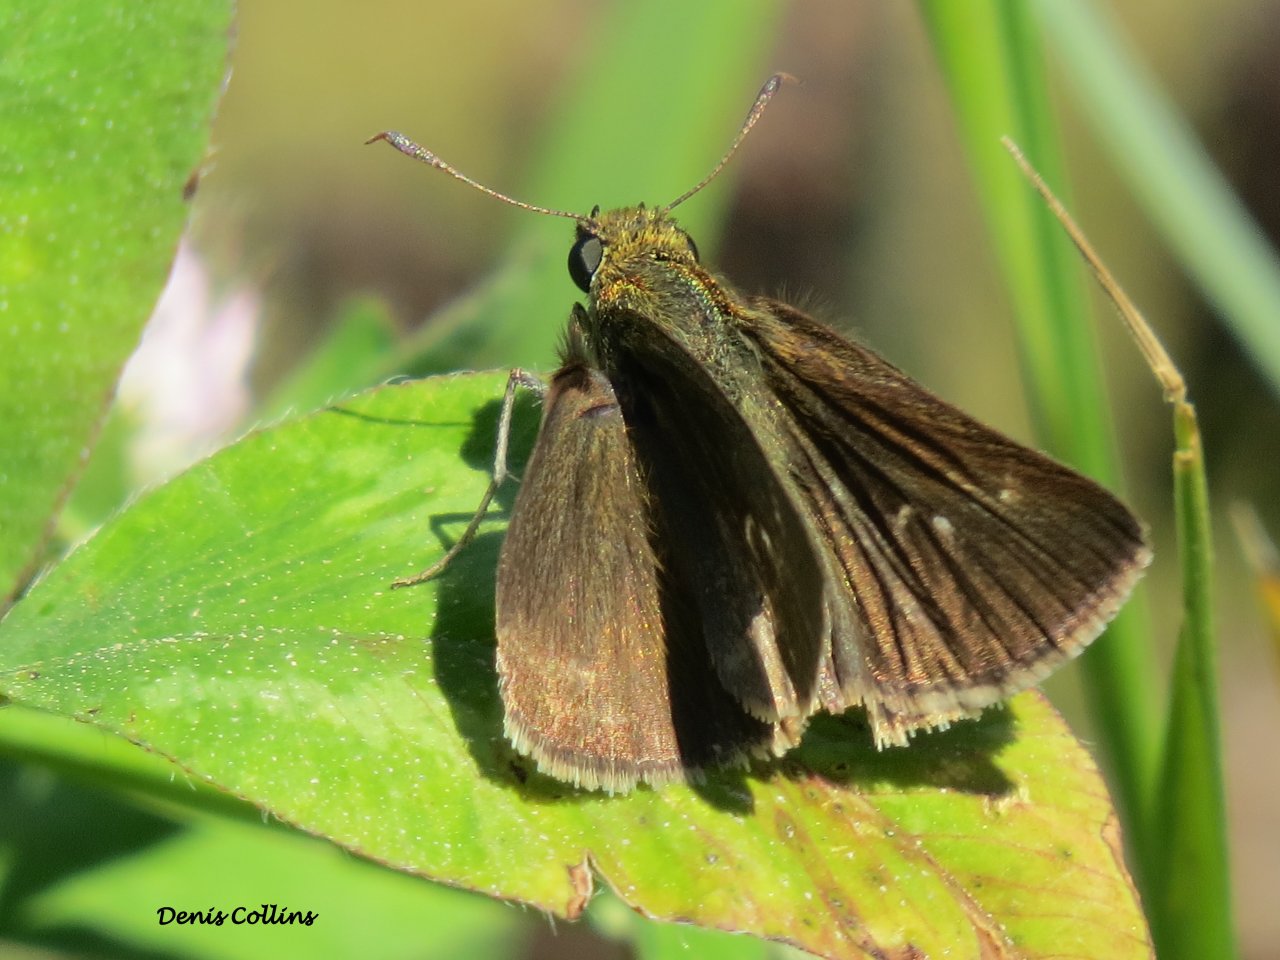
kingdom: Animalia
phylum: Arthropoda
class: Insecta
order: Lepidoptera
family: Hesperiidae
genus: Euphyes
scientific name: Euphyes vestris
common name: Dun Skipper
